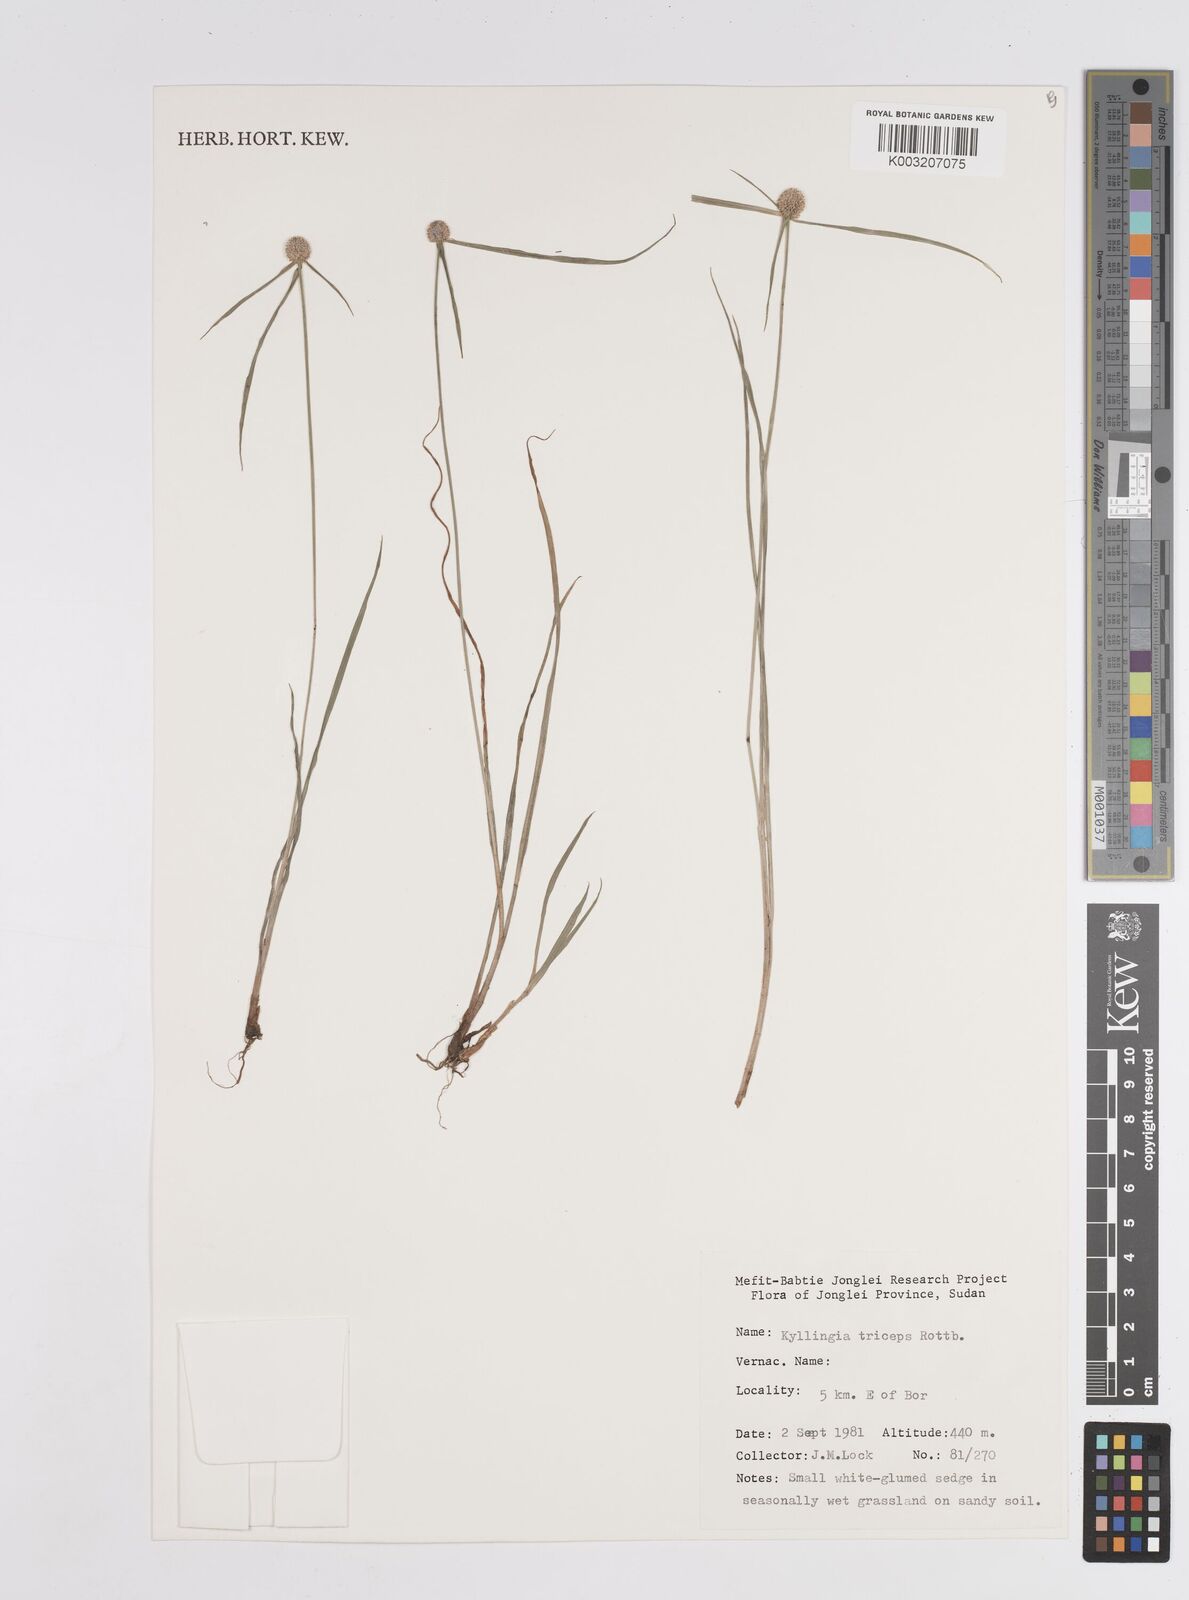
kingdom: Plantae
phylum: Tracheophyta
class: Liliopsida
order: Poales
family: Cyperaceae
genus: Cyperus
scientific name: Cyperus
